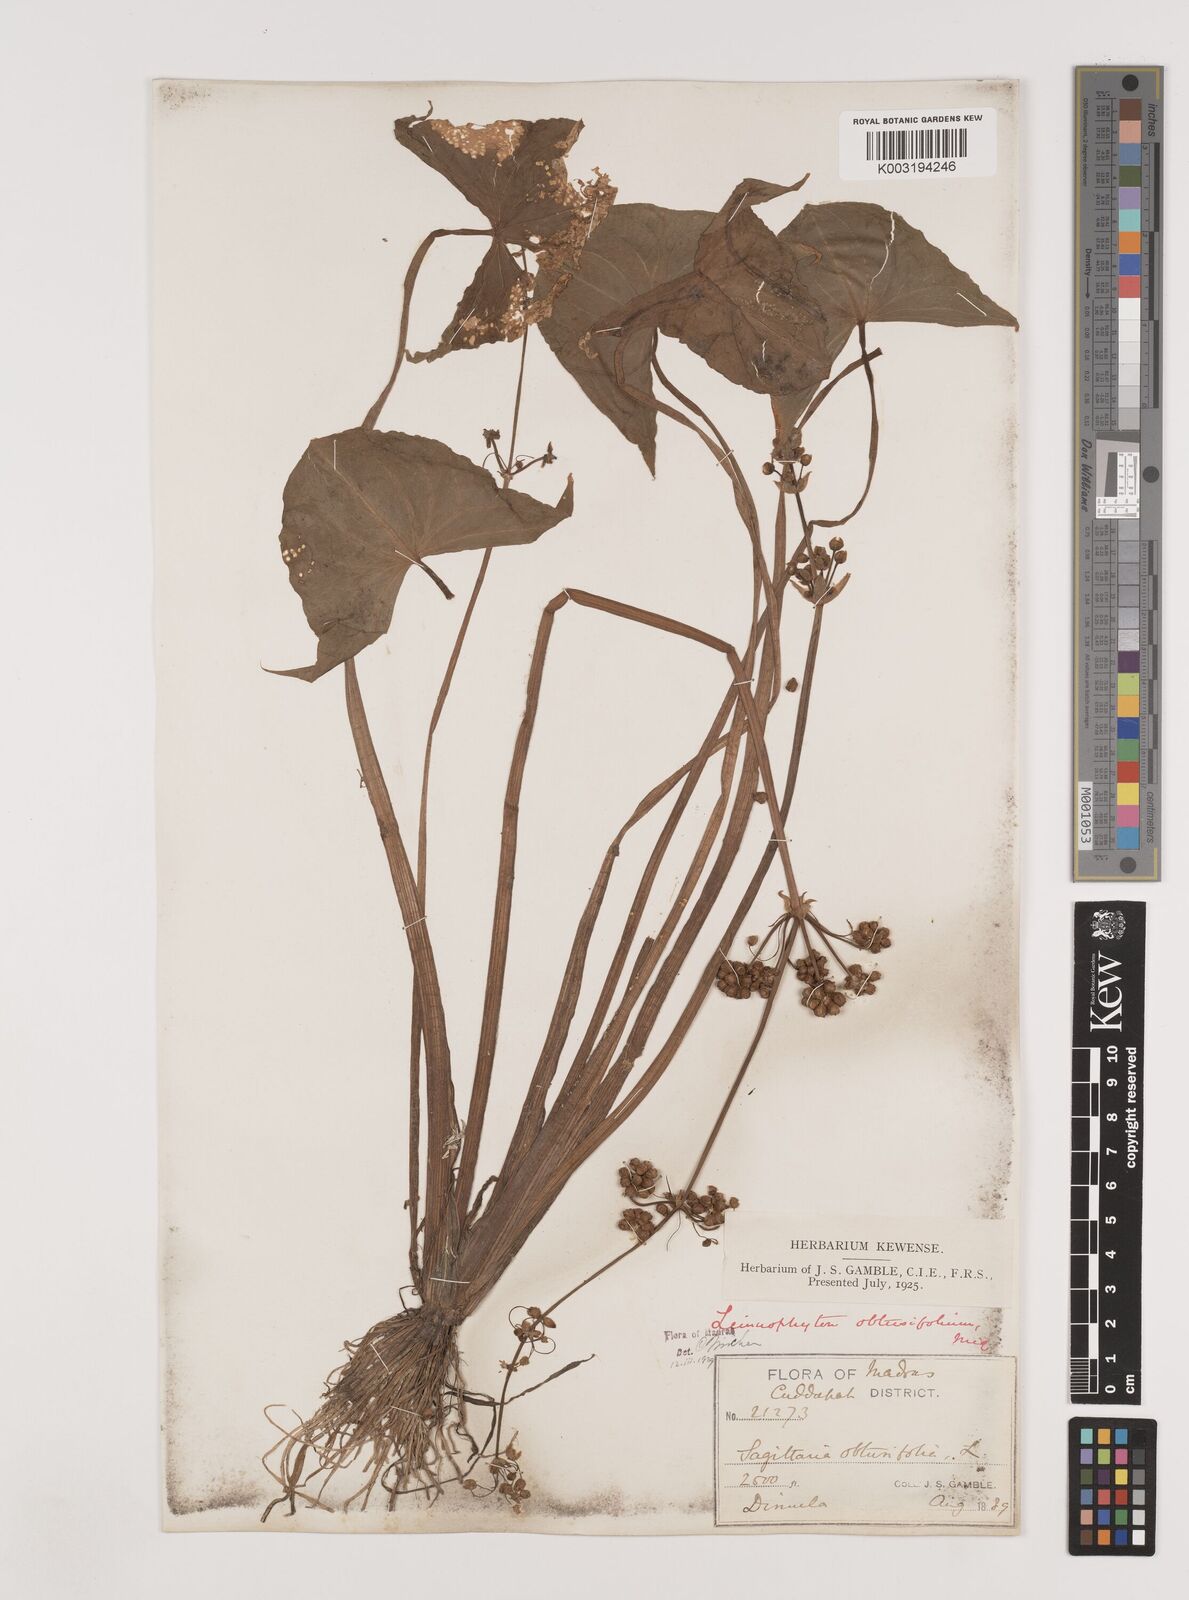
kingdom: Plantae
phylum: Tracheophyta
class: Liliopsida
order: Alismatales
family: Alismataceae
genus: Limnophyton
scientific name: Limnophyton obtusifolium
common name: Arrow head
